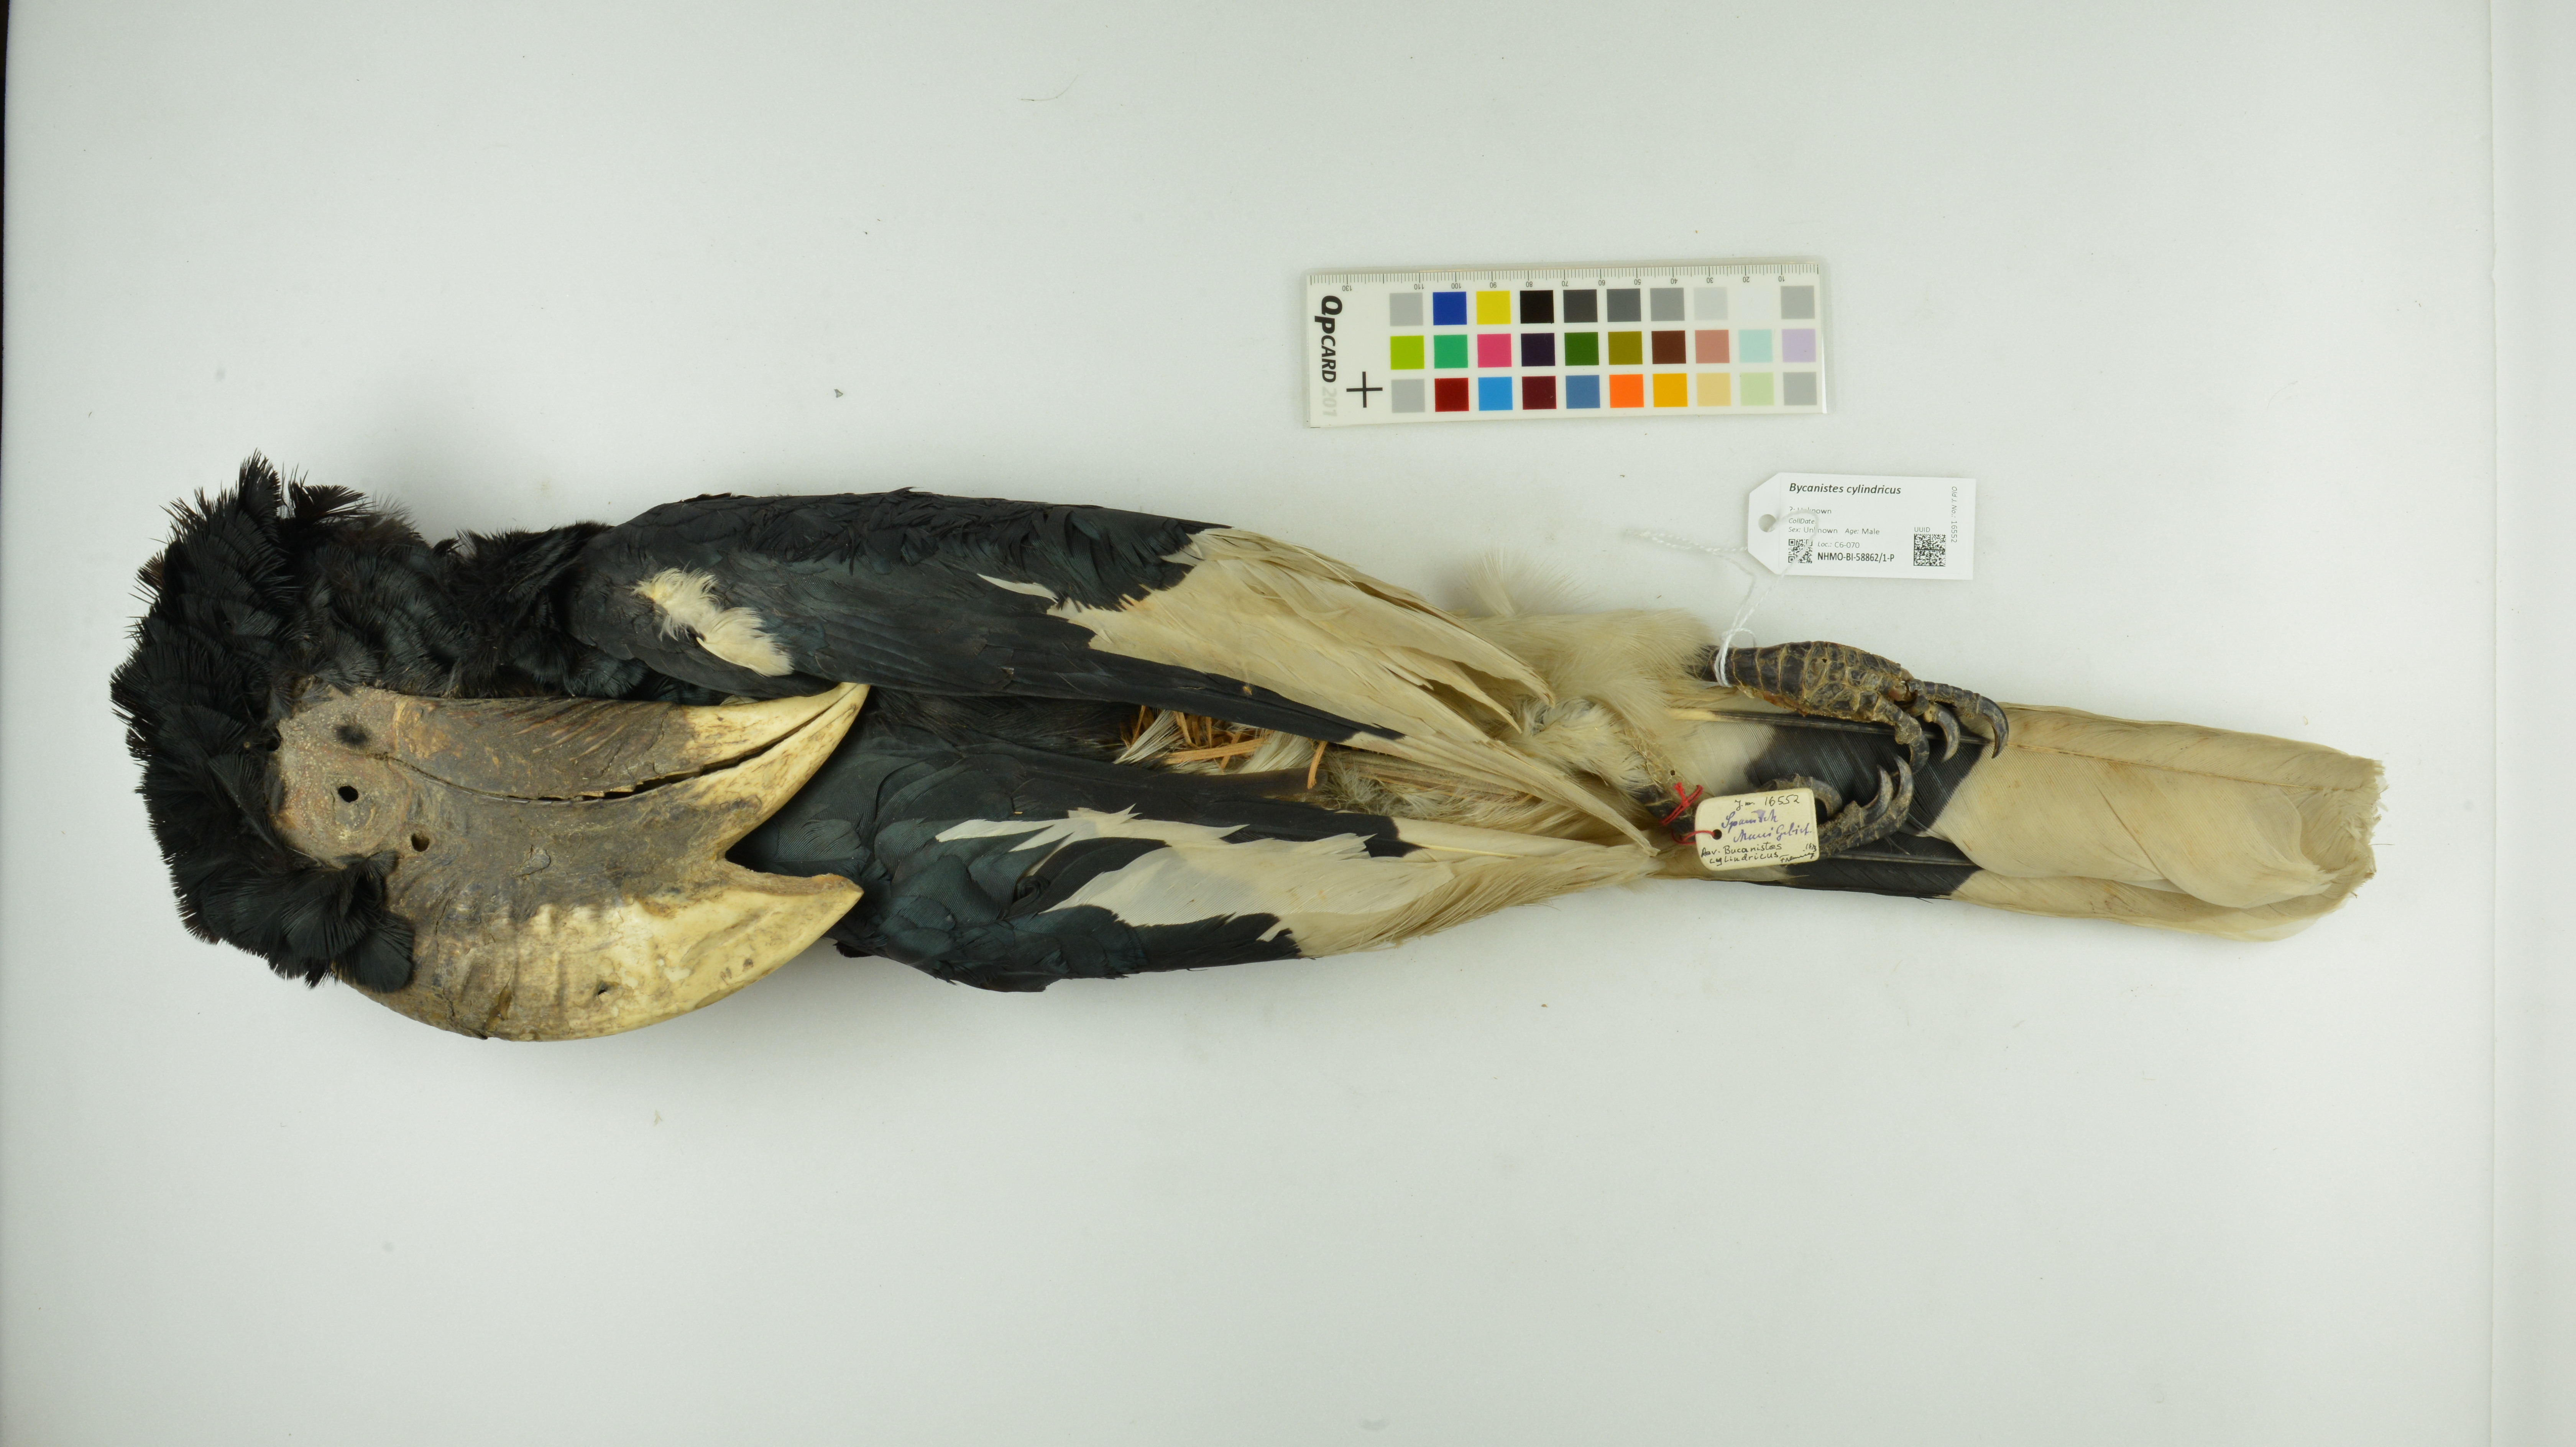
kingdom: Animalia
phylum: Chordata
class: Aves
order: Bucerotiformes
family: Bucerotidae
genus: Bycanistes
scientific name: Bycanistes cylindricus
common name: Brown-cheeked hornbill
